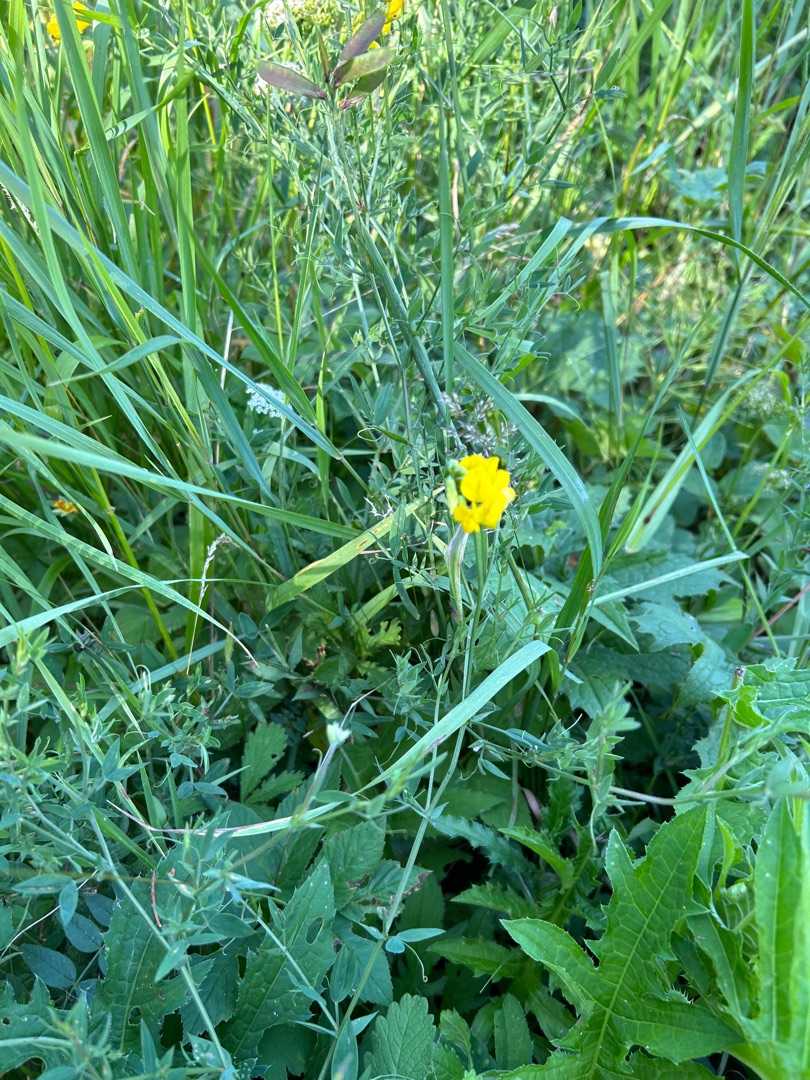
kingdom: Plantae
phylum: Tracheophyta
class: Magnoliopsida
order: Fabales
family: Fabaceae
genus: Lathyrus
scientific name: Lathyrus pratensis
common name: Gul fladbælg
